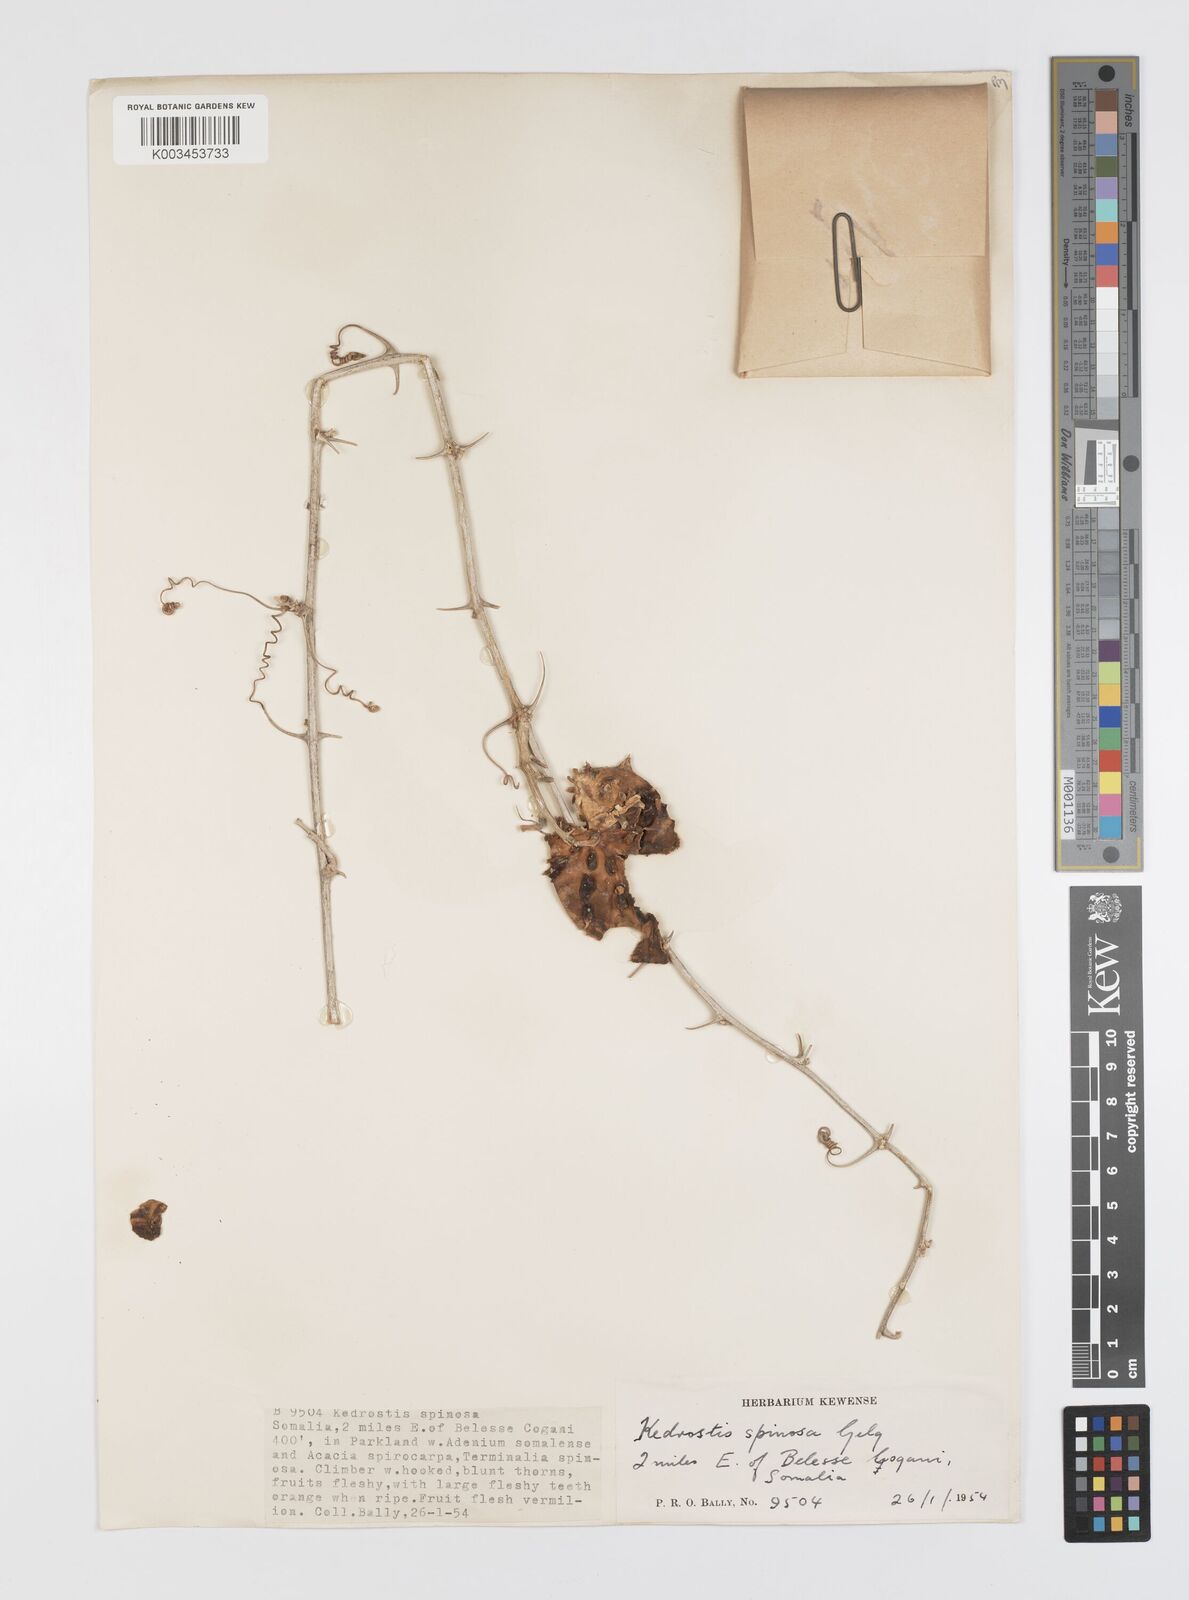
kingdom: Plantae
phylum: Tracheophyta
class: Magnoliopsida
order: Cucurbitales
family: Cucurbitaceae
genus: Momordica
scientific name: Momordica spinosa
